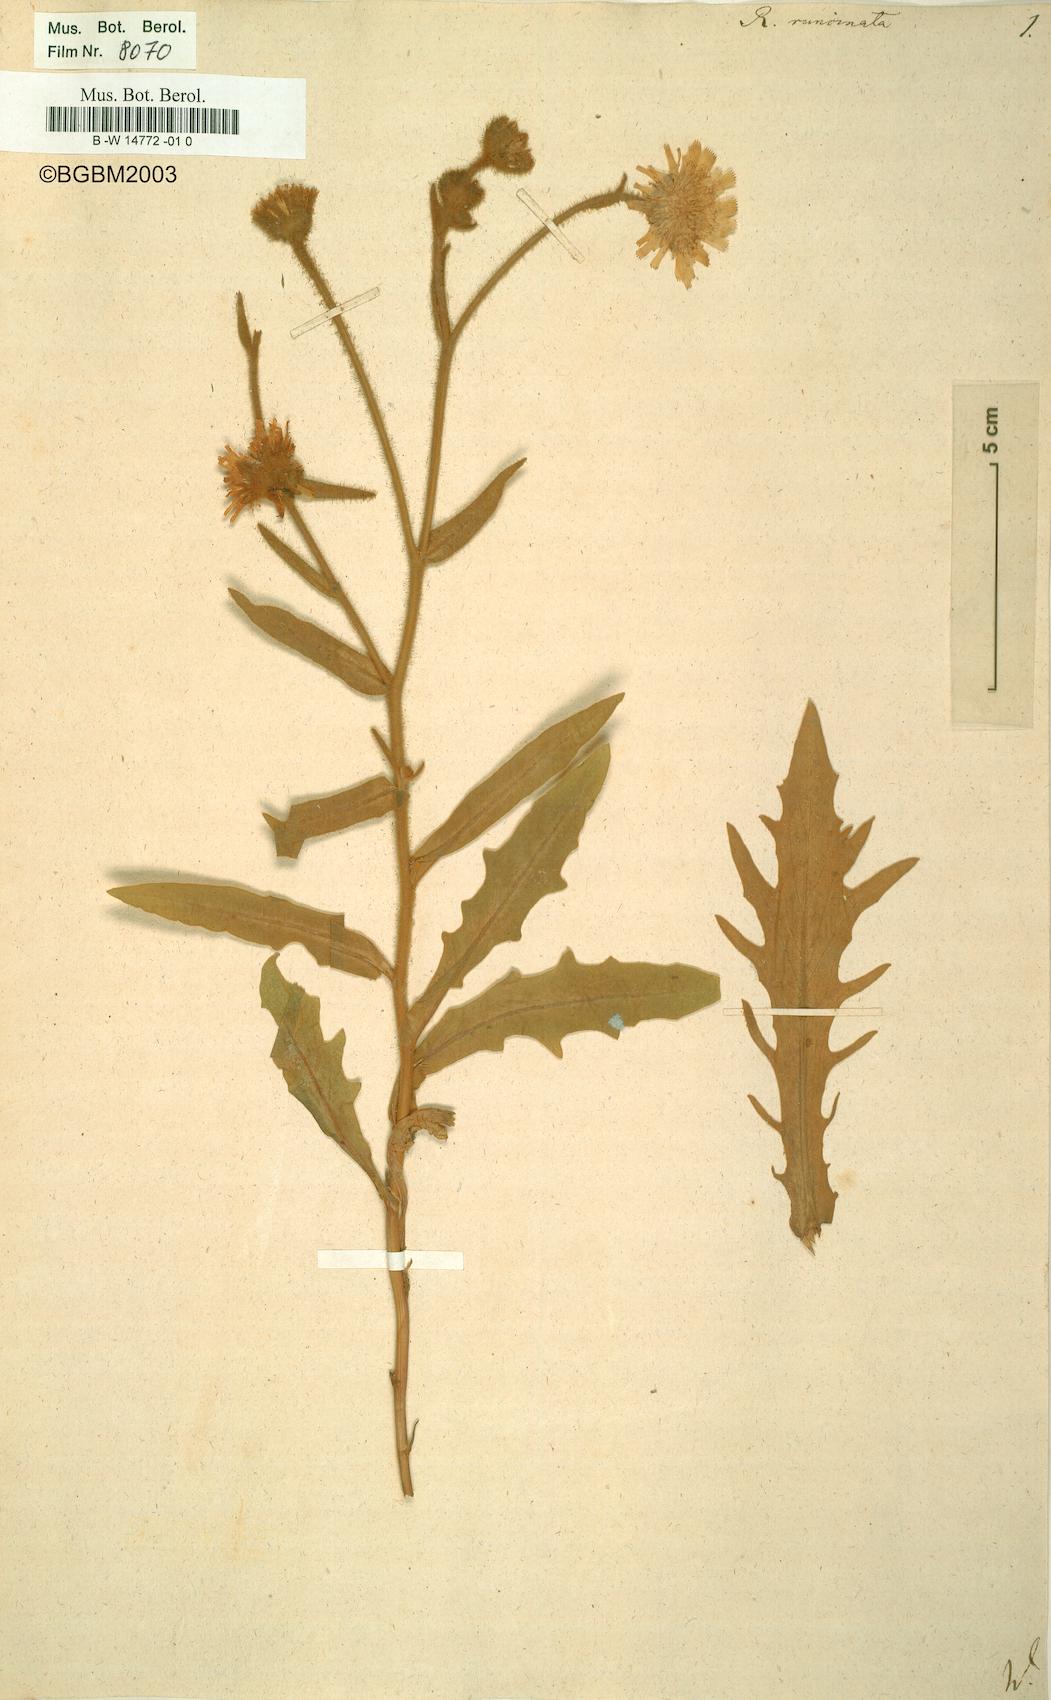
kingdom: Plantae
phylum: Tracheophyta
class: Magnoliopsida
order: Asterales
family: Asteraceae
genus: Andryala
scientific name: Andryala integrifolia
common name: Common andryala
